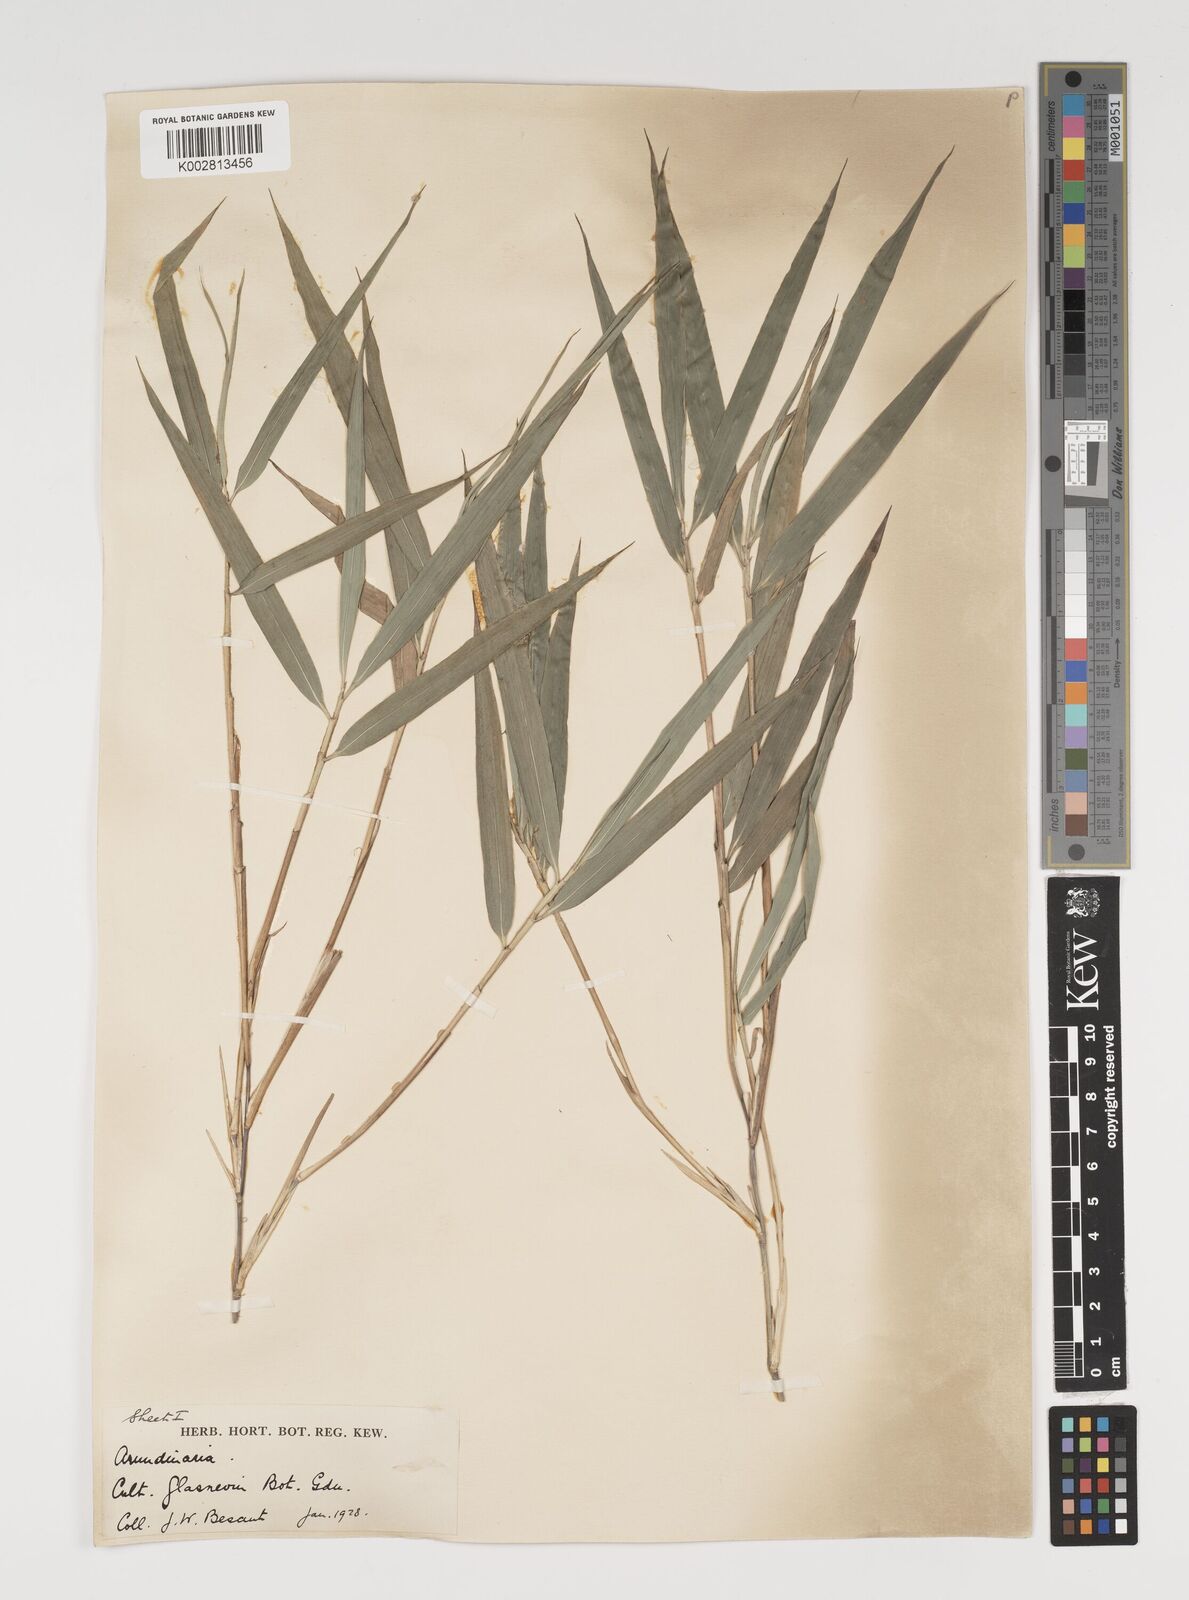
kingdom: Plantae
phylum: Tracheophyta
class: Liliopsida
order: Poales
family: Poaceae
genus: Thamnocalamus
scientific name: Thamnocalamus spathiflorus
